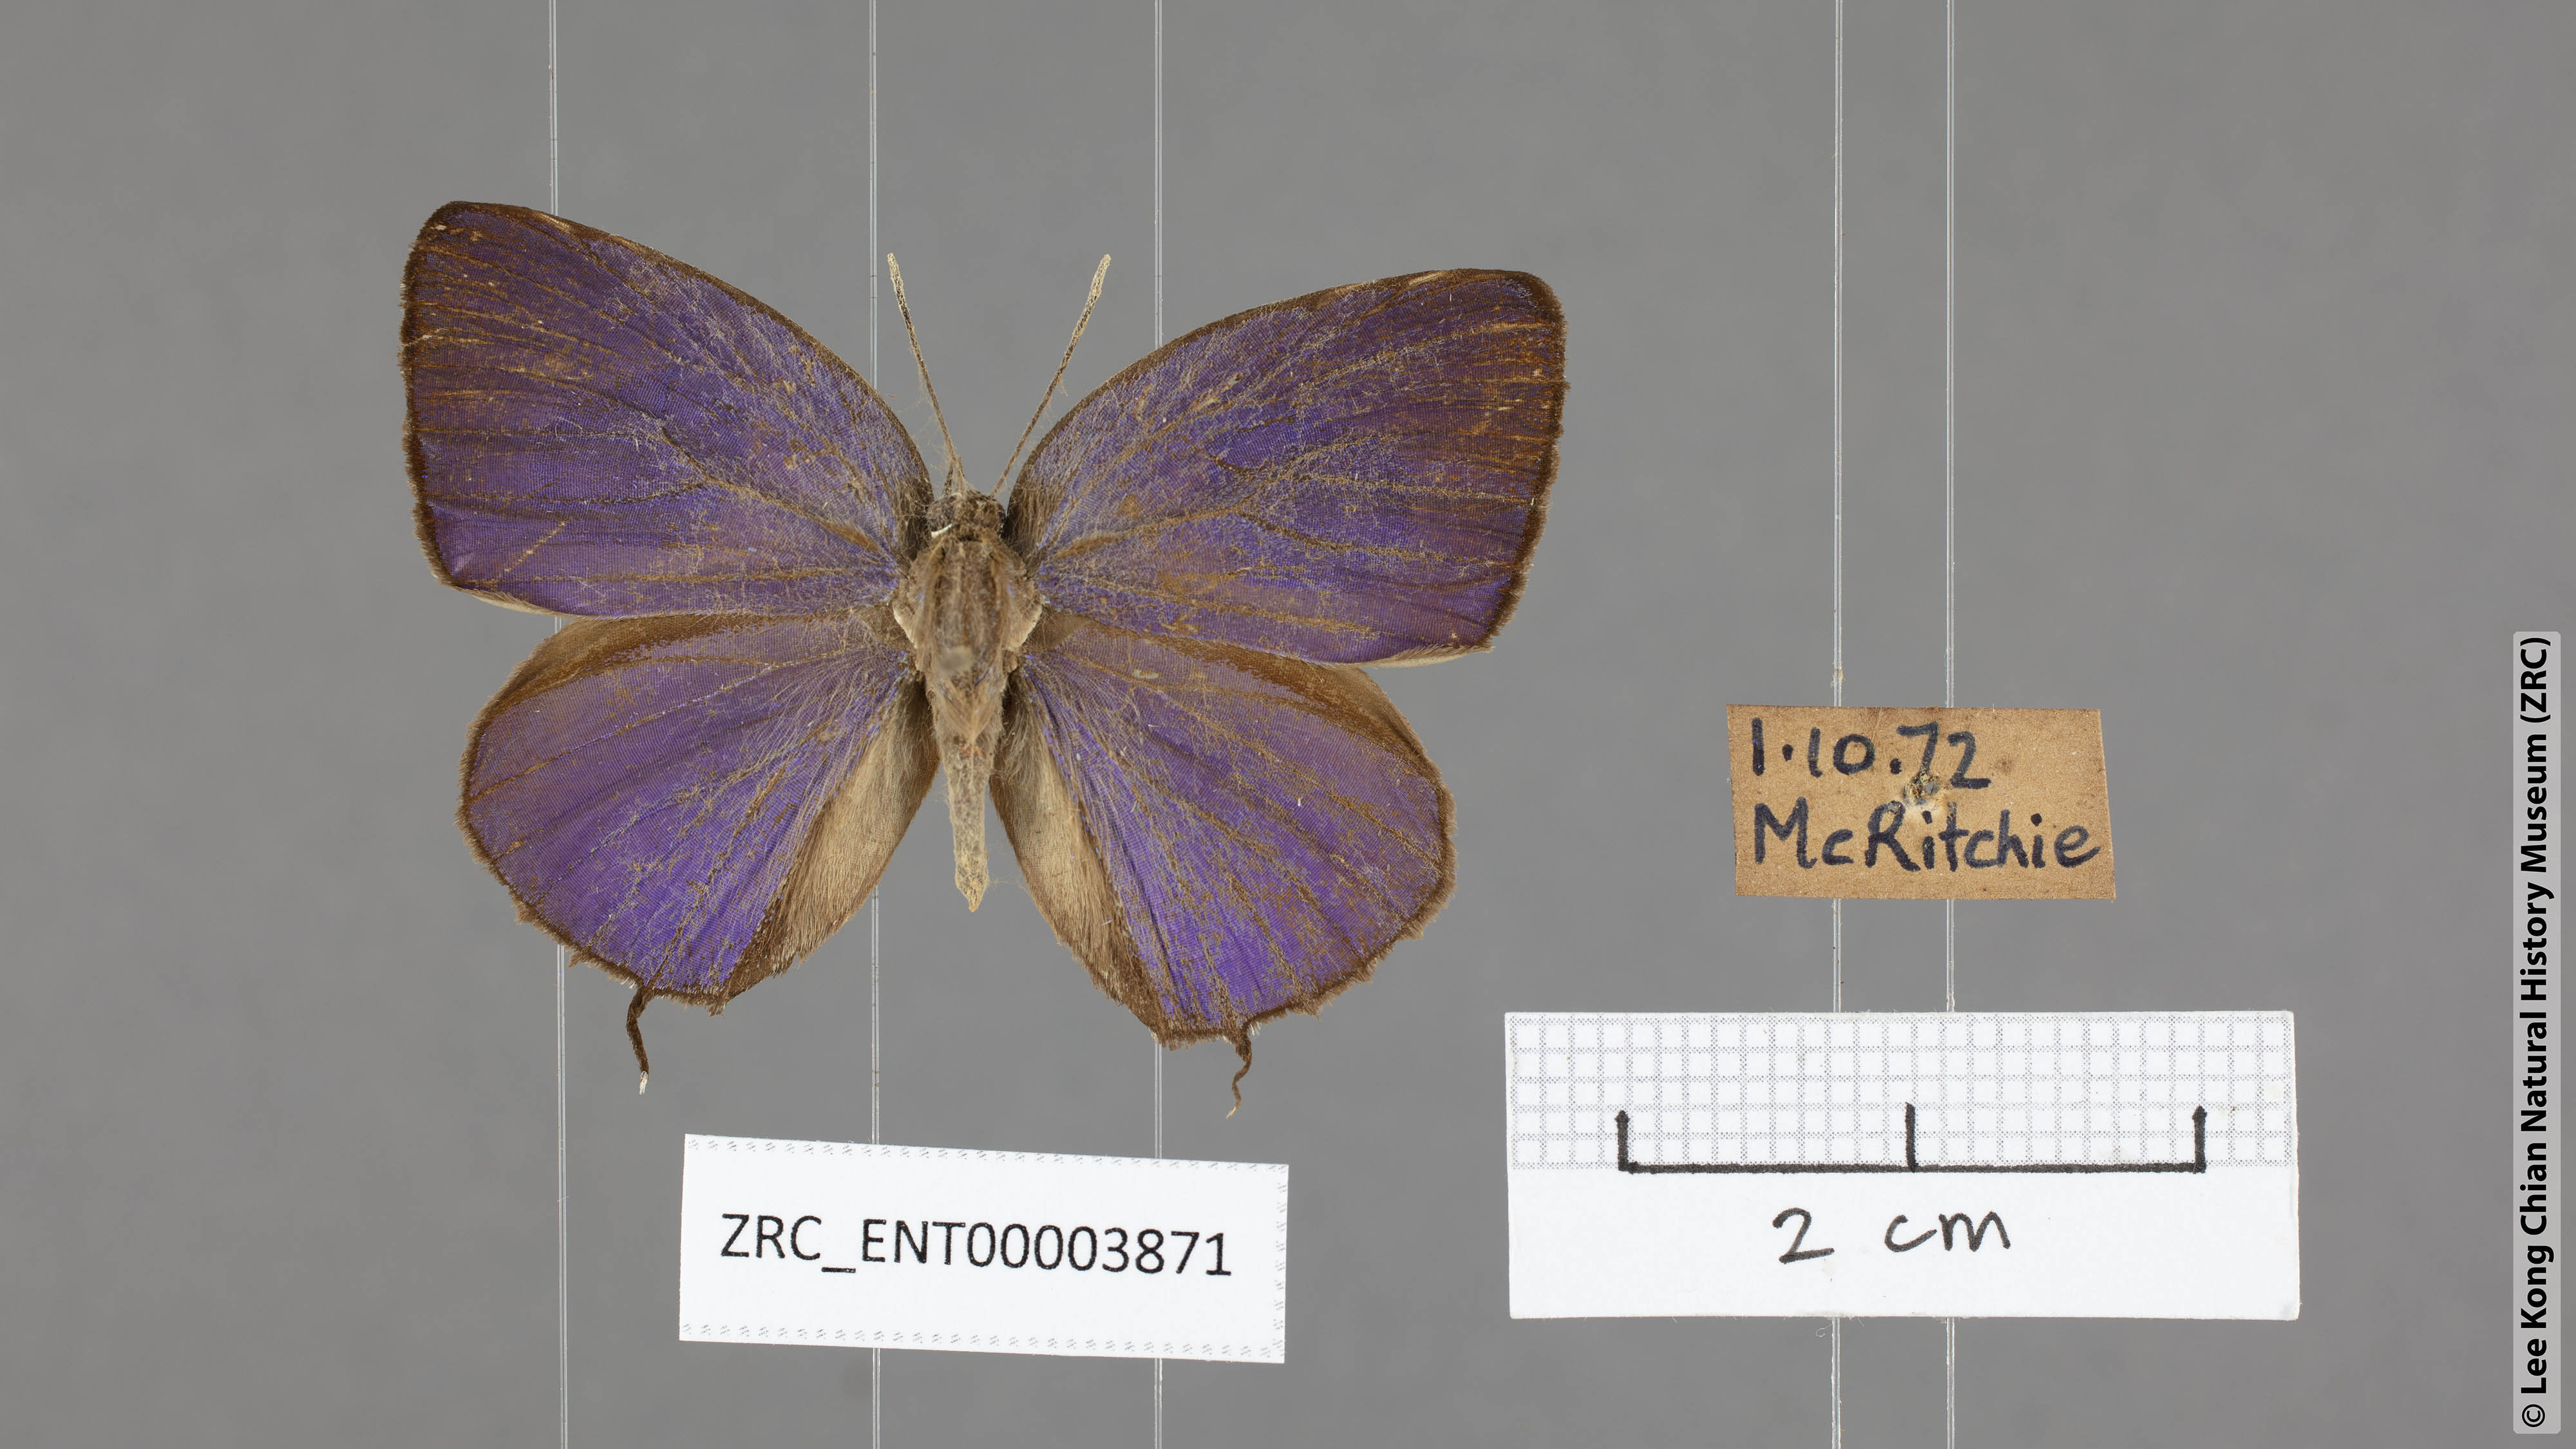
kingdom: Animalia
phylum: Arthropoda
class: Insecta
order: Lepidoptera
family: Lycaenidae
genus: Arhopala
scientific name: Arhopala atosia
